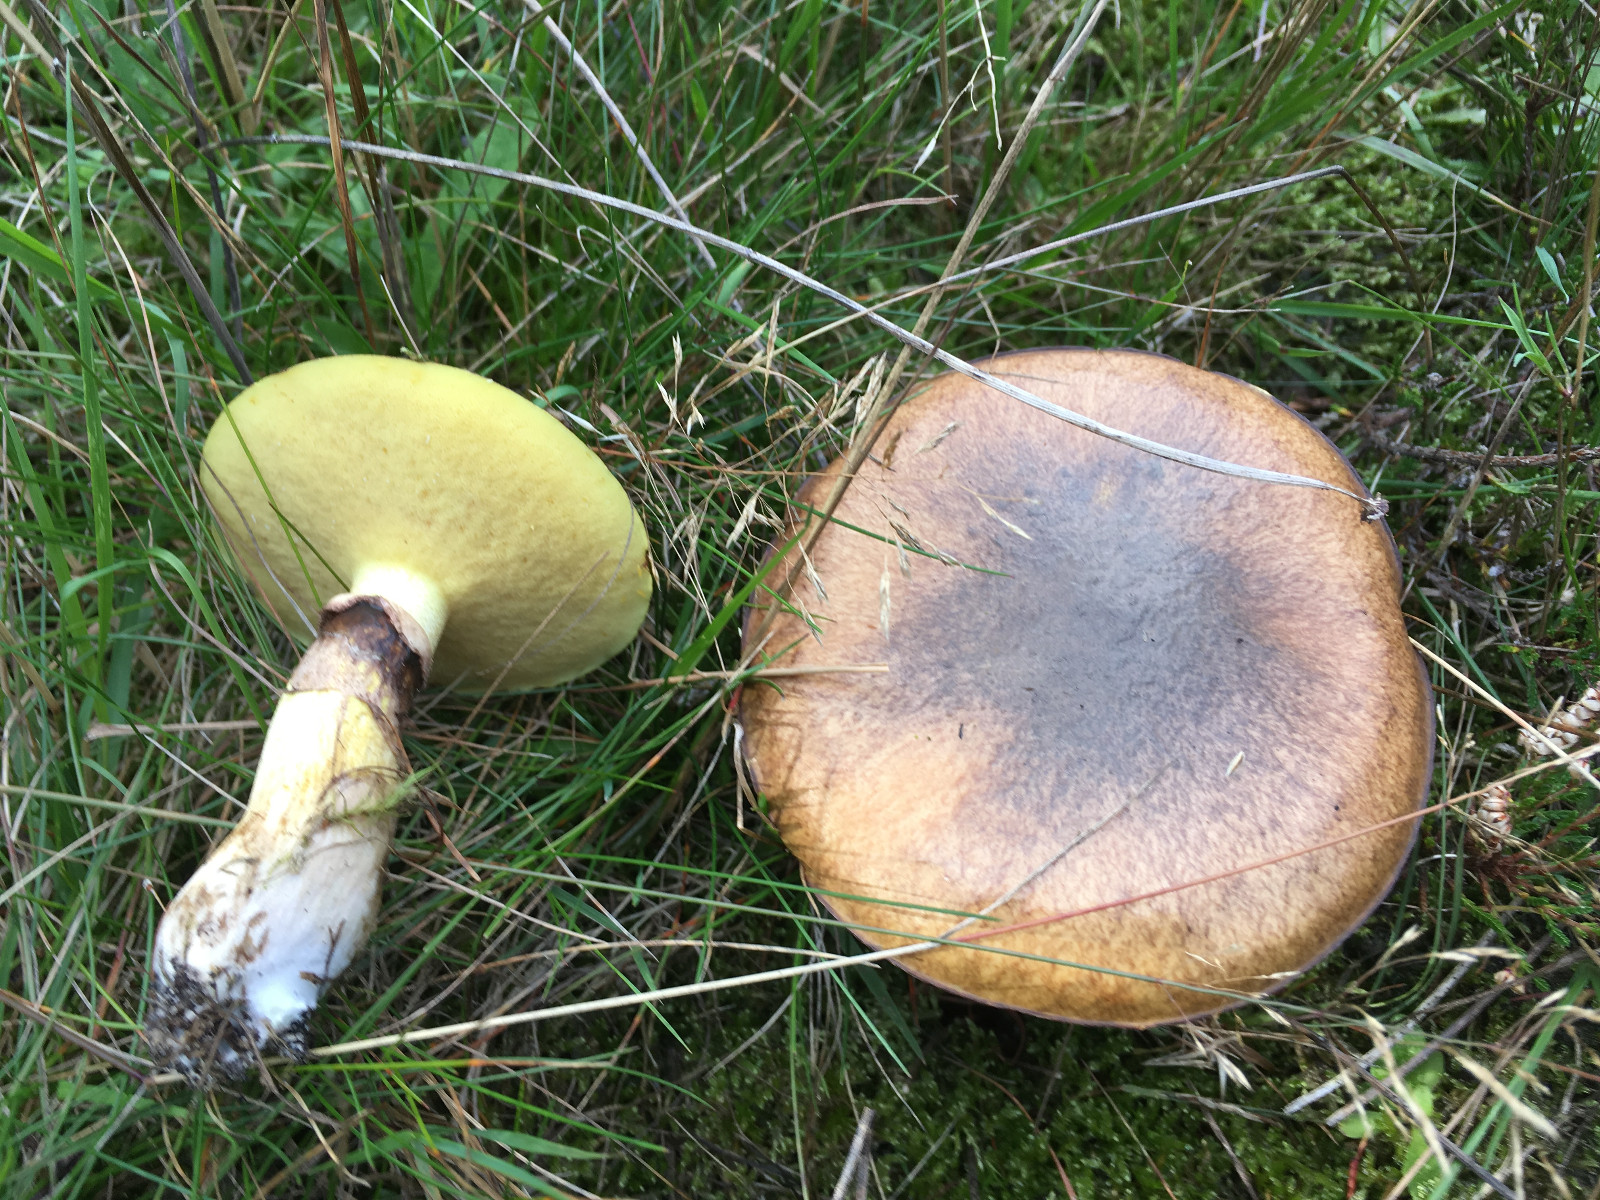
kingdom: Fungi
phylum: Basidiomycota
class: Agaricomycetes
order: Boletales
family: Suillaceae
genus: Suillus
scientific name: Suillus luteus
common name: brungul slimrørhat
